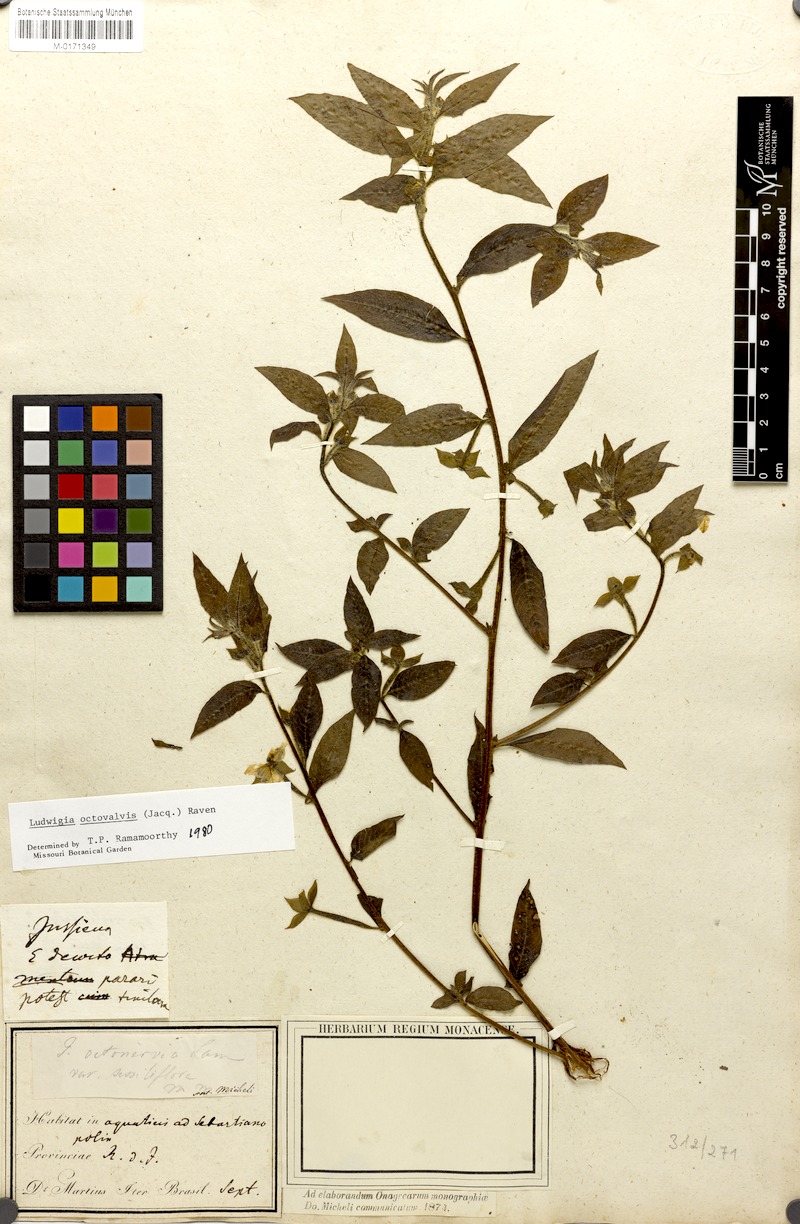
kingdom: Plantae
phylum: Tracheophyta
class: Magnoliopsida
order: Myrtales
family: Onagraceae
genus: Ludwigia
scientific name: Ludwigia octovalvis
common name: Water-primrose
